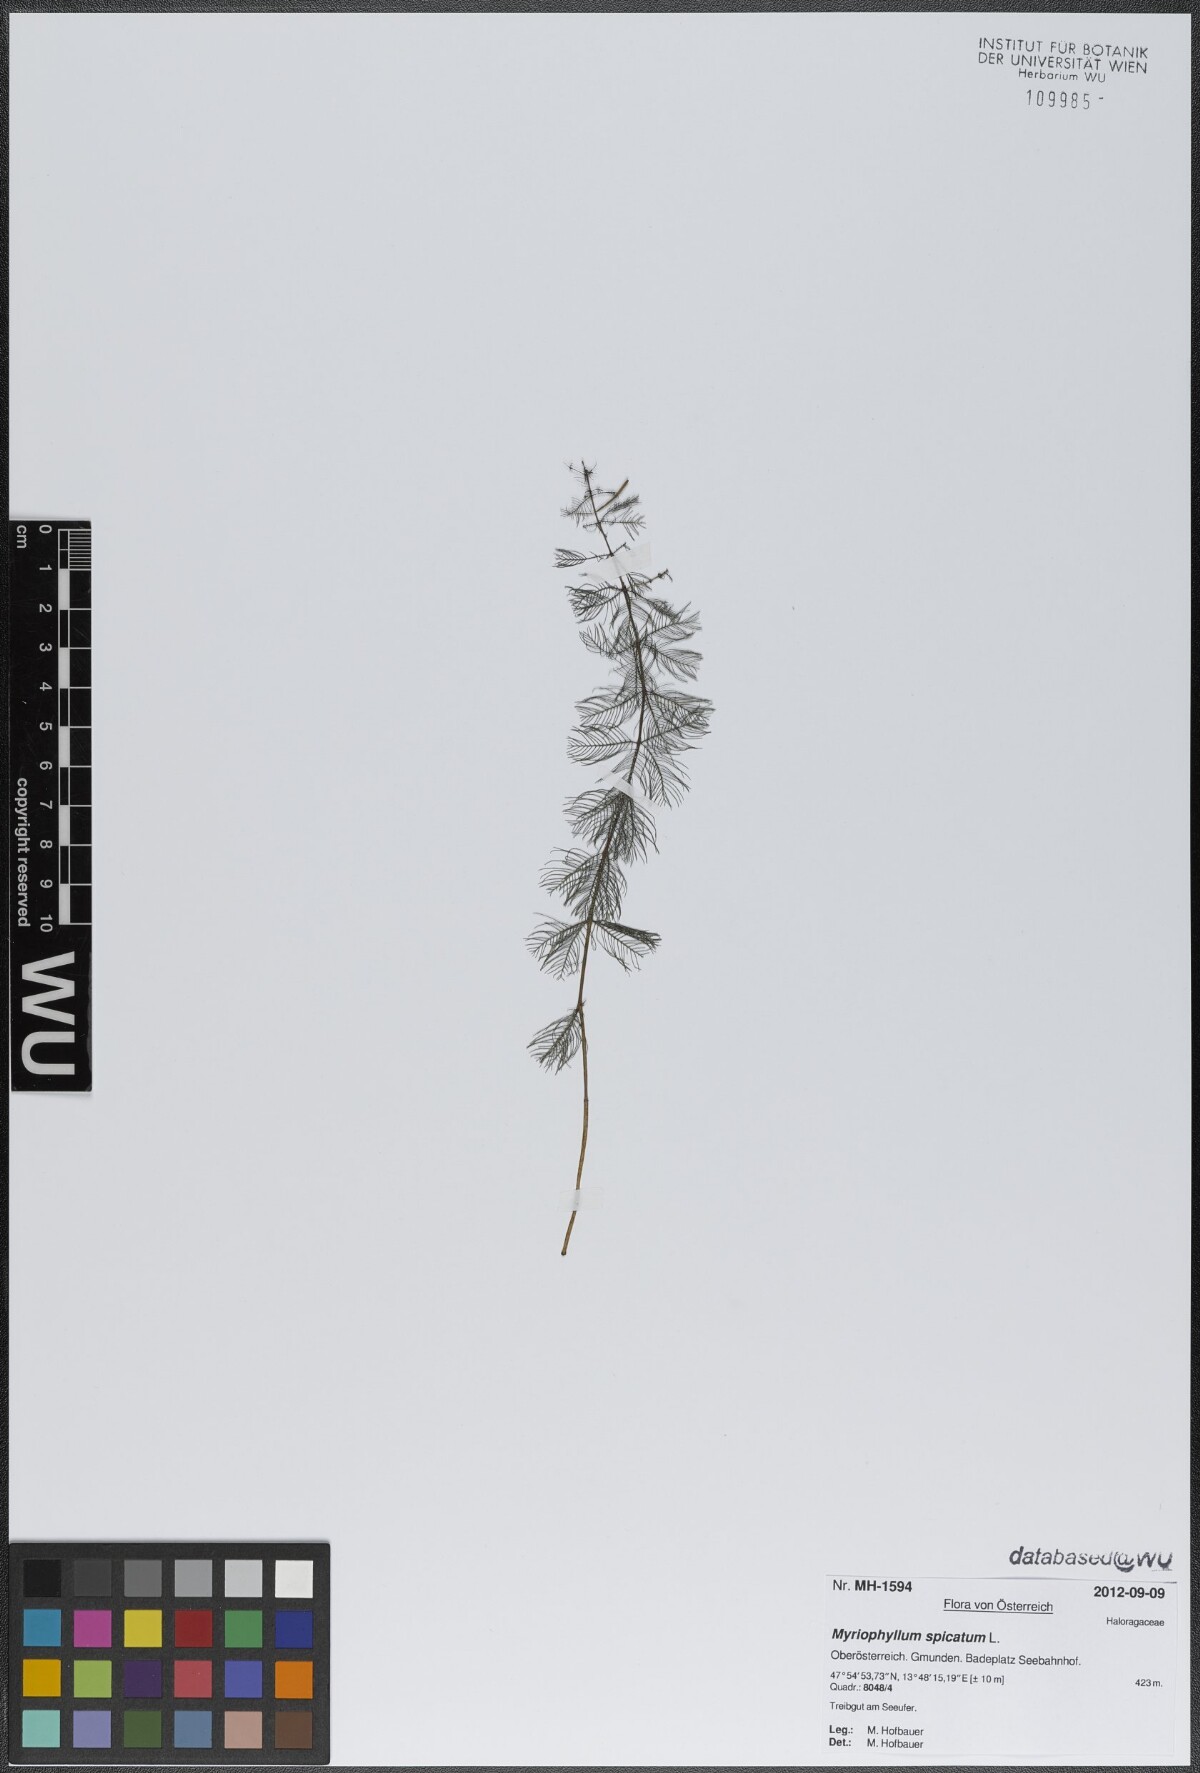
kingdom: Plantae
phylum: Tracheophyta
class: Magnoliopsida
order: Saxifragales
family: Haloragaceae
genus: Myriophyllum
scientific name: Myriophyllum spicatum
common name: Spiked water-milfoil
